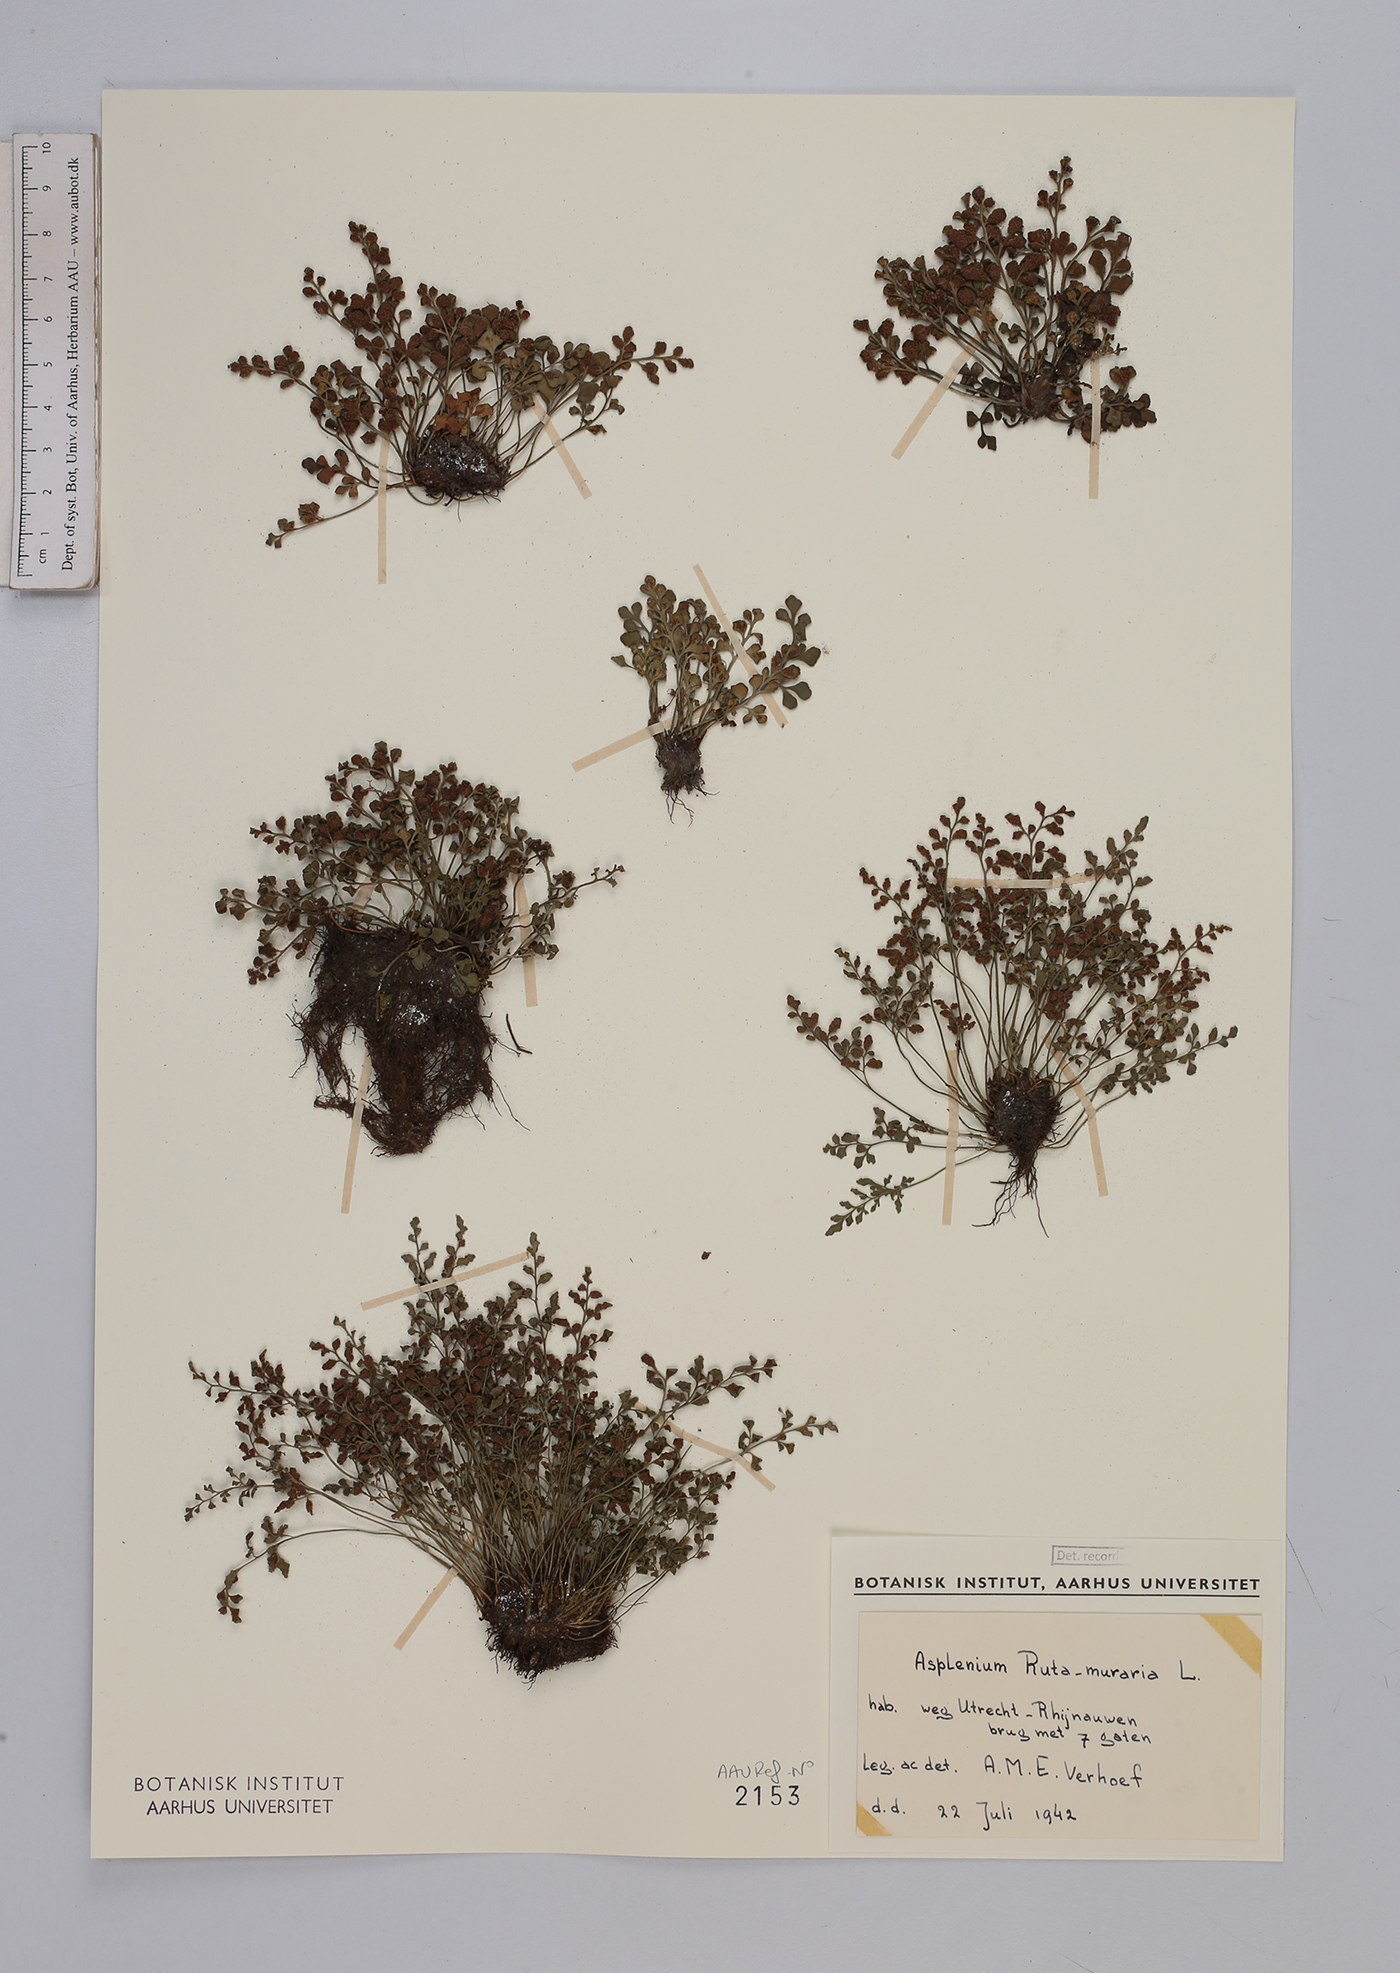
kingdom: Plantae
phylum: Tracheophyta
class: Polypodiopsida
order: Polypodiales
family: Aspleniaceae
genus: Asplenium
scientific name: Asplenium ruta-muraria
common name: Wall-rue
